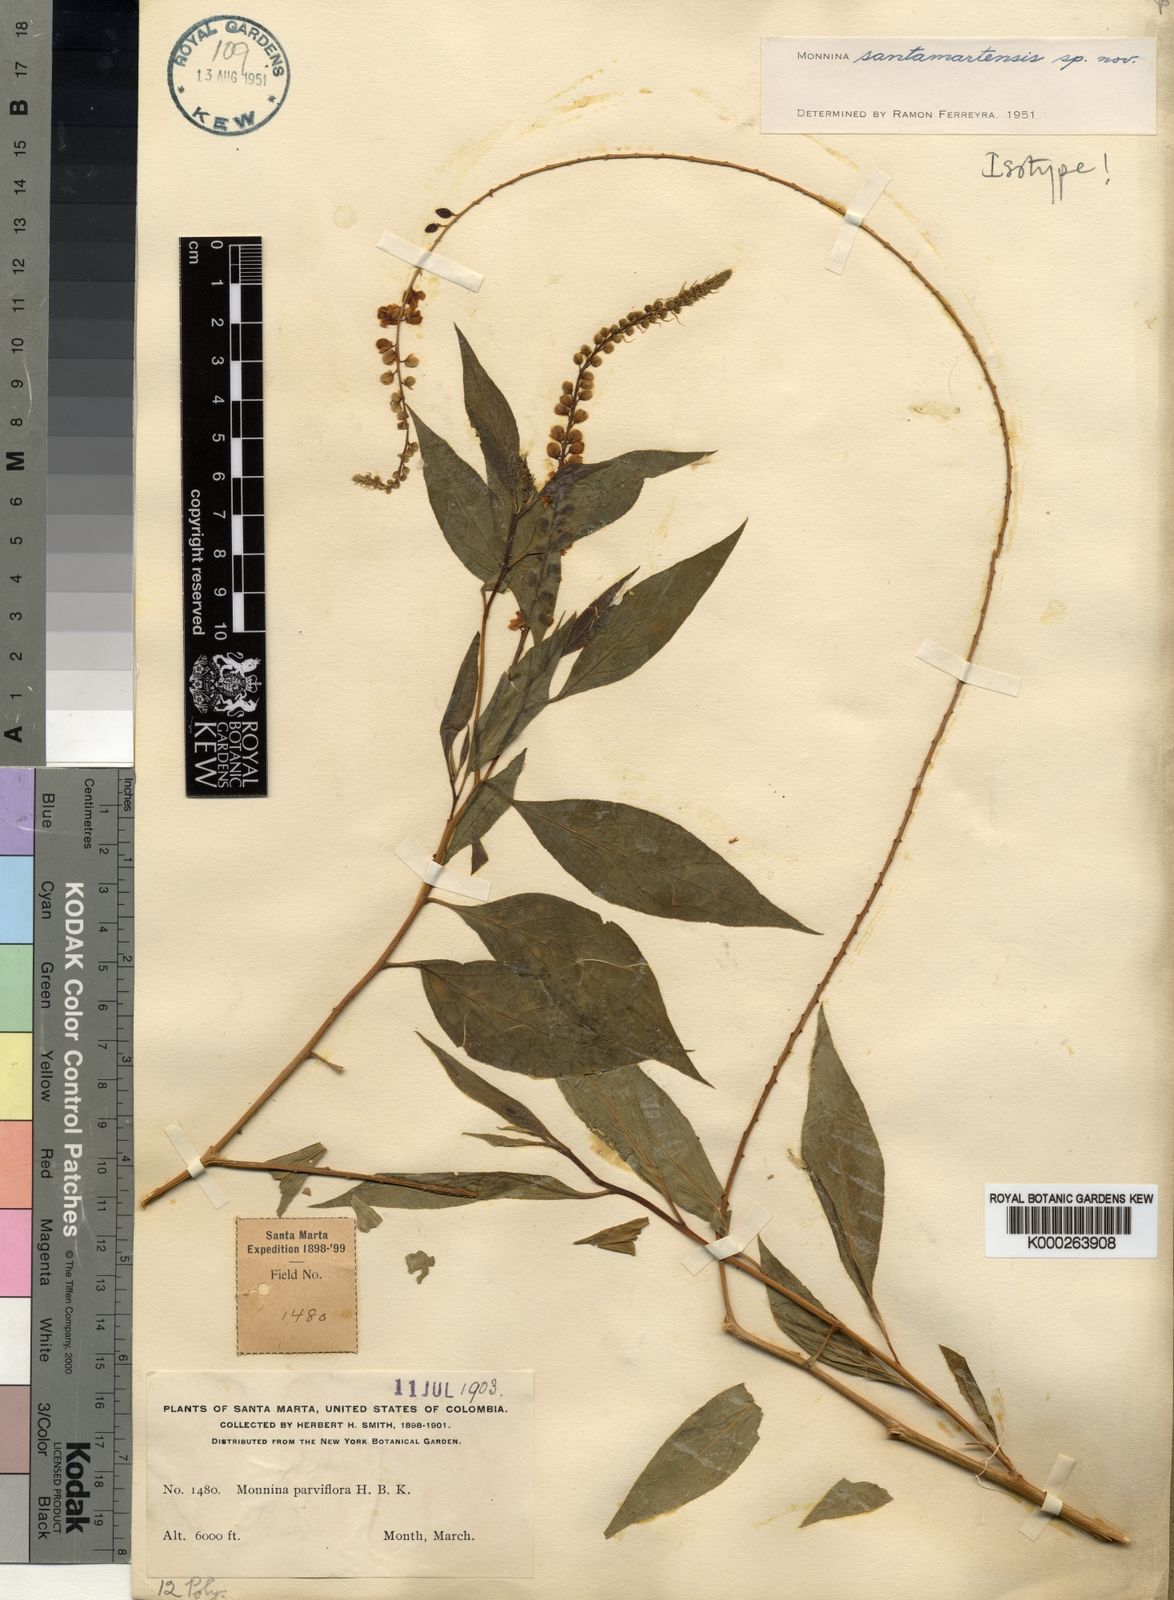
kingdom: Plantae
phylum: Tracheophyta
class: Magnoliopsida
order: Fabales
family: Polygalaceae
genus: Monnina
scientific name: Monnina santamartensis
